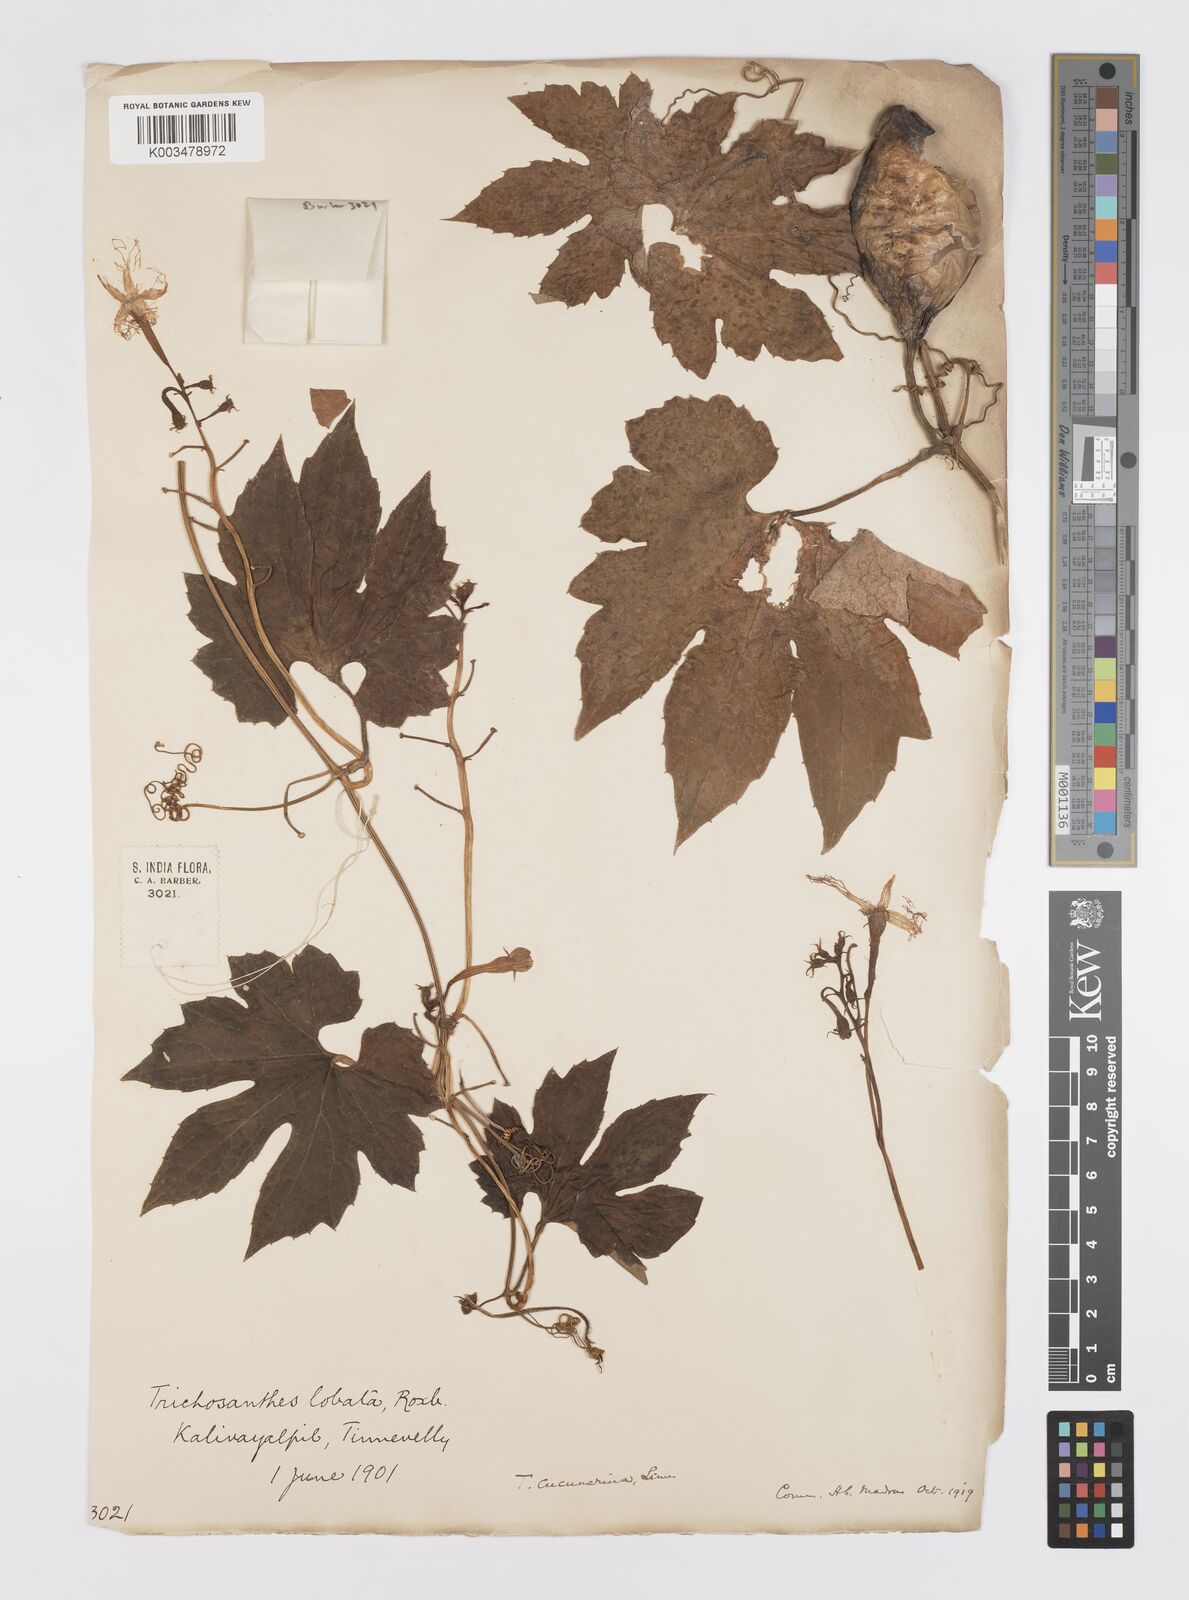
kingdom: Plantae
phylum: Tracheophyta
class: Magnoliopsida
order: Cucurbitales
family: Cucurbitaceae
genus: Trichosanthes
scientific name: Trichosanthes cucumerina
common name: Snakegourd
